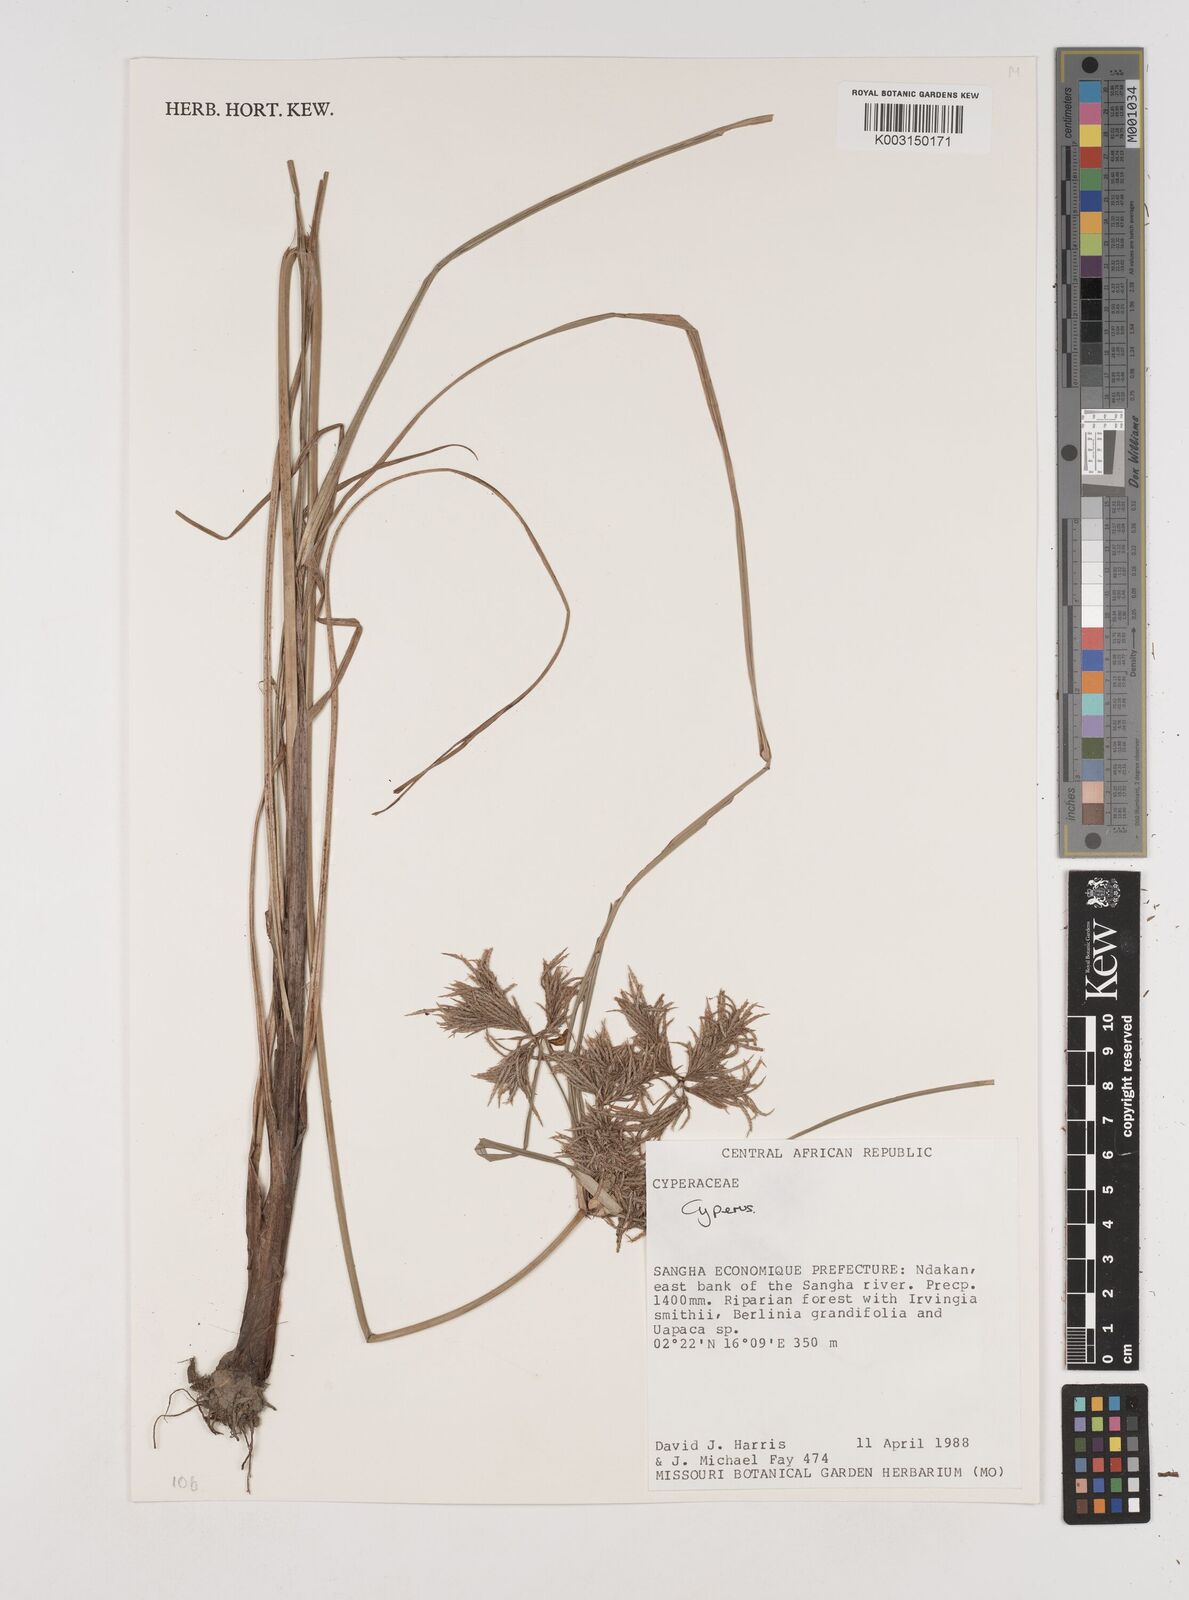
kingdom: Plantae
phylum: Tracheophyta
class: Liliopsida
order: Poales
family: Cyperaceae
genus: Cyperus
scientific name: Cyperus
